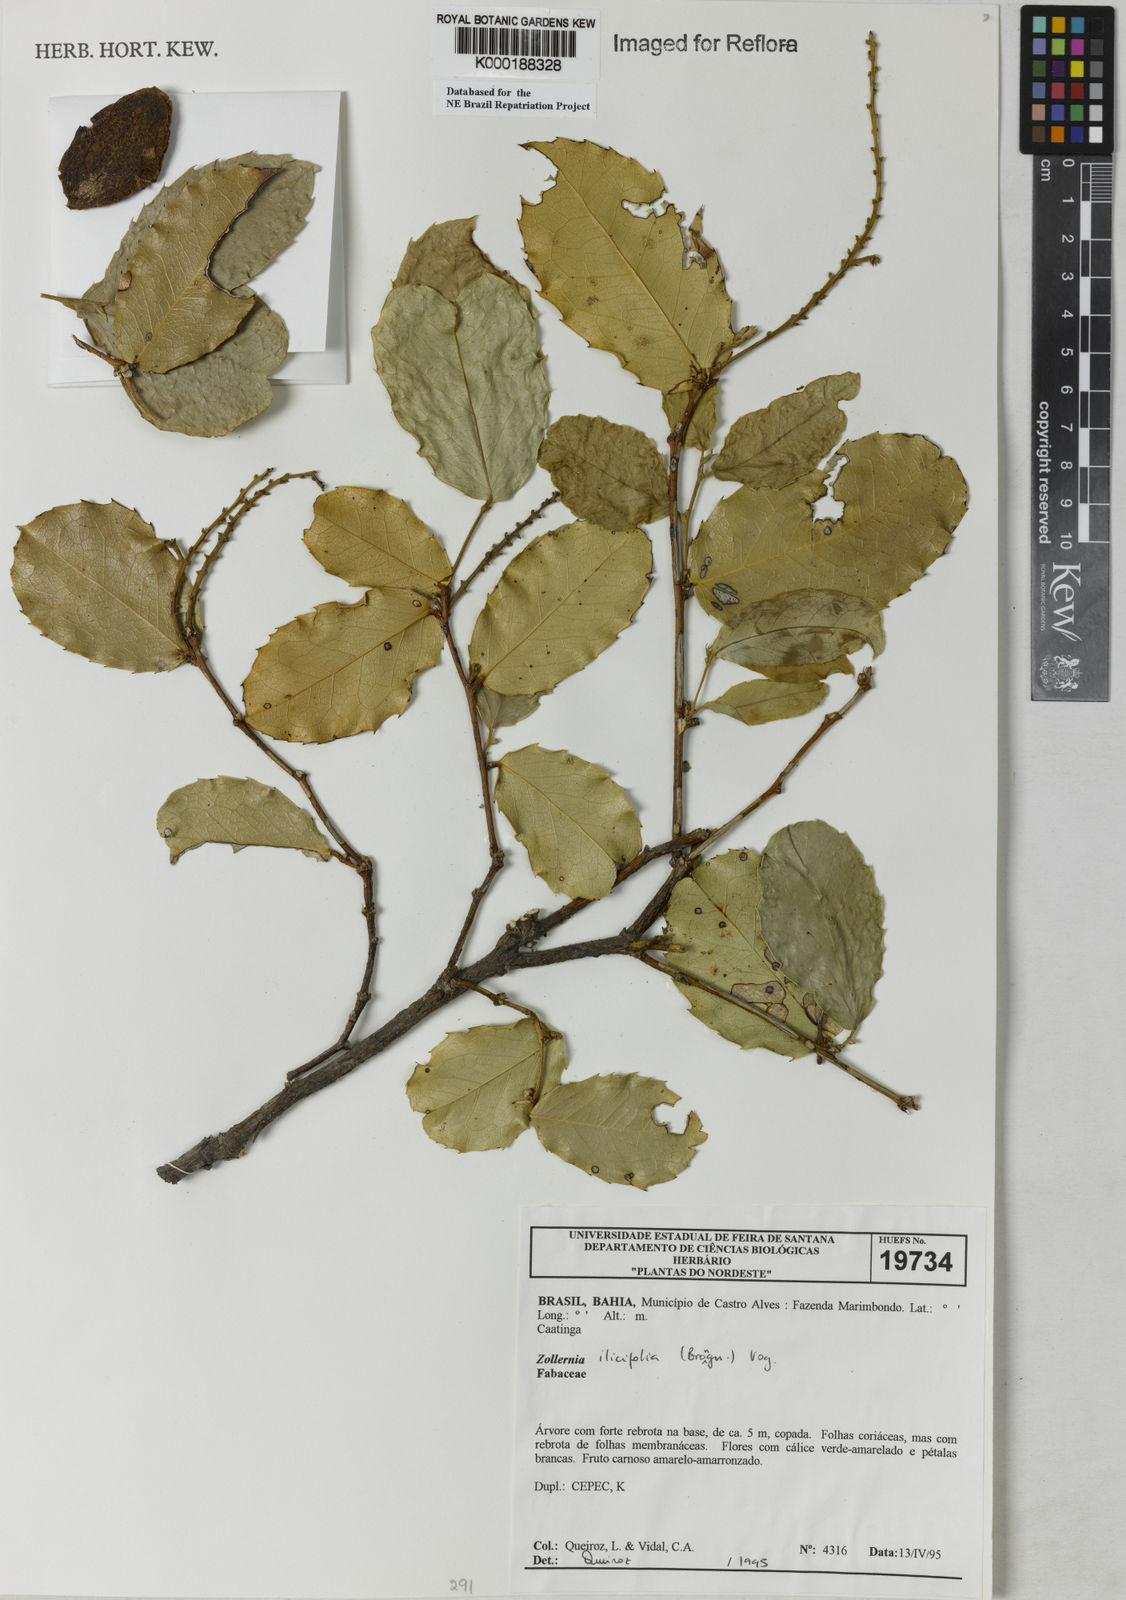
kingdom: Plantae
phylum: Tracheophyta
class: Magnoliopsida
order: Fabales
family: Fabaceae
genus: Zollernia
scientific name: Zollernia ilicifolia
